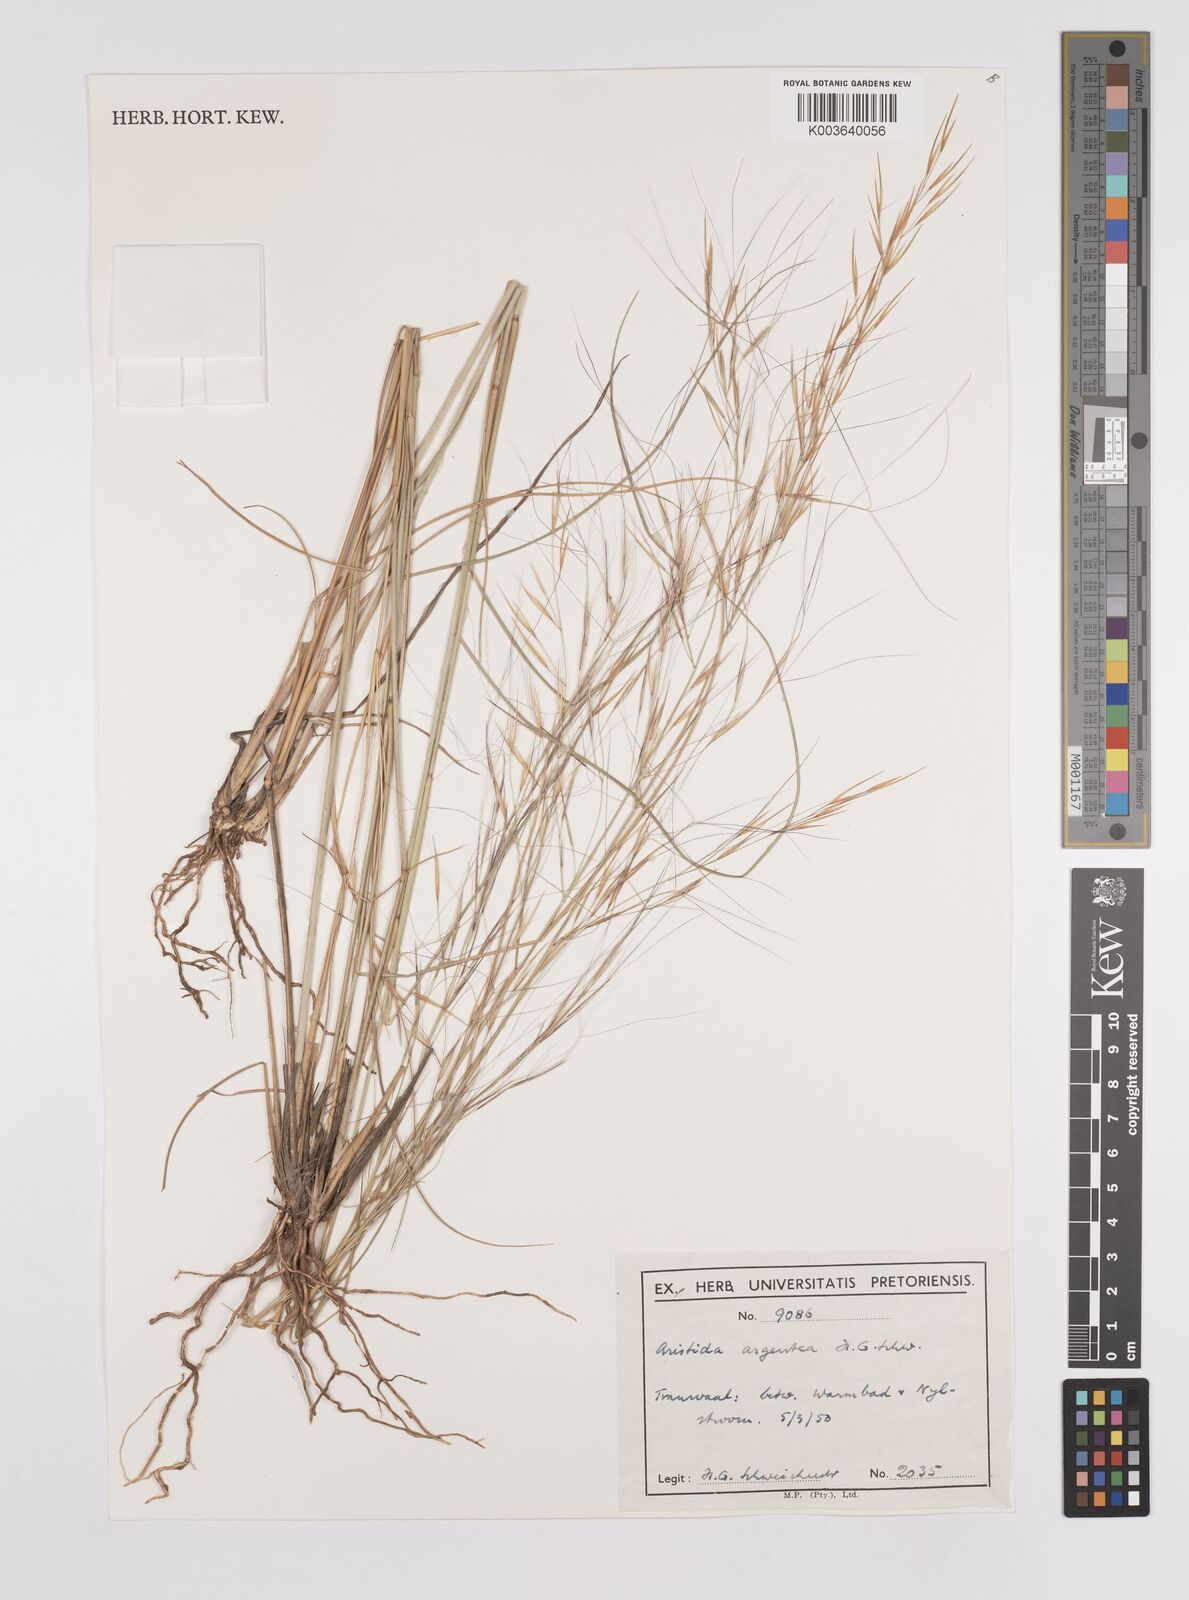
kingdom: Plantae
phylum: Tracheophyta
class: Liliopsida
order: Poales
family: Poaceae
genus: Aristida
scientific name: Aristida mollissima
